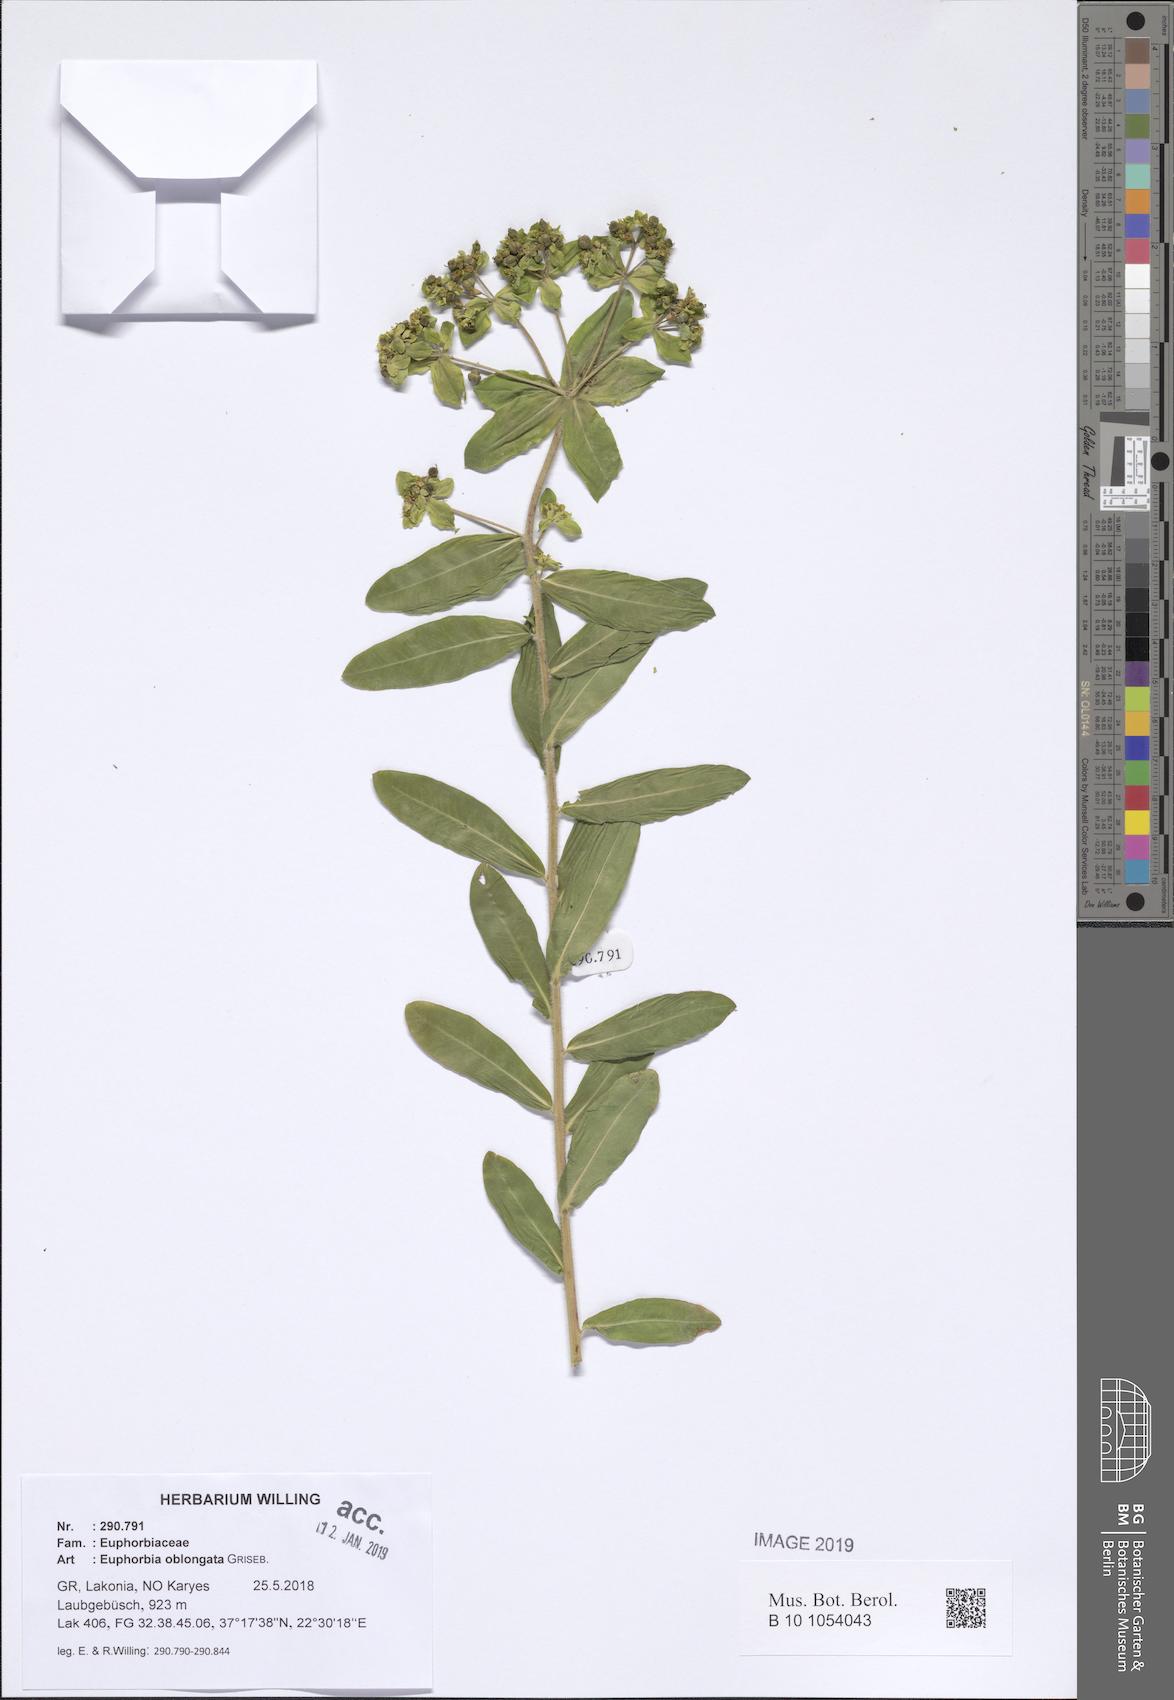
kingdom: Plantae
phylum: Tracheophyta
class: Magnoliopsida
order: Malpighiales
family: Euphorbiaceae
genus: Euphorbia
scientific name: Euphorbia oblongata
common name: Balkan spurge
